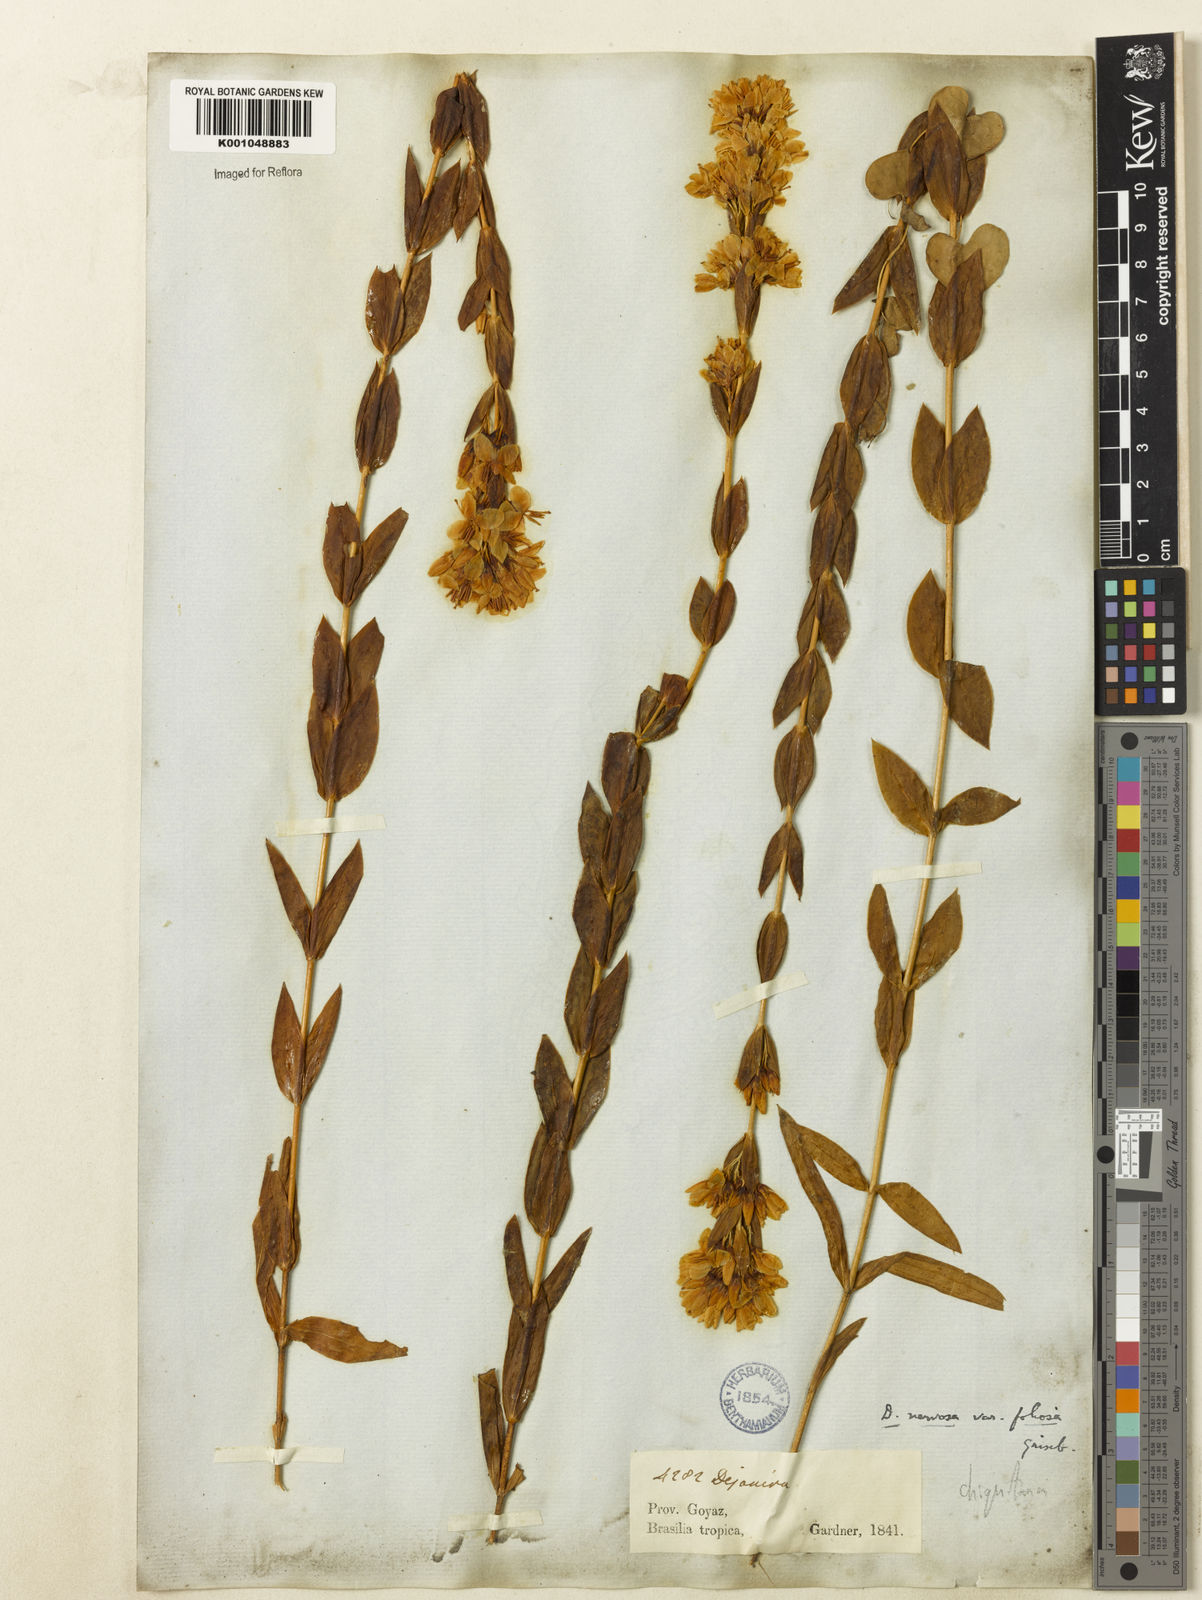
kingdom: Plantae
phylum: Tracheophyta
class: Magnoliopsida
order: Gentianales
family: Gentianaceae
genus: Deianira
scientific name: Deianira chiquitana
